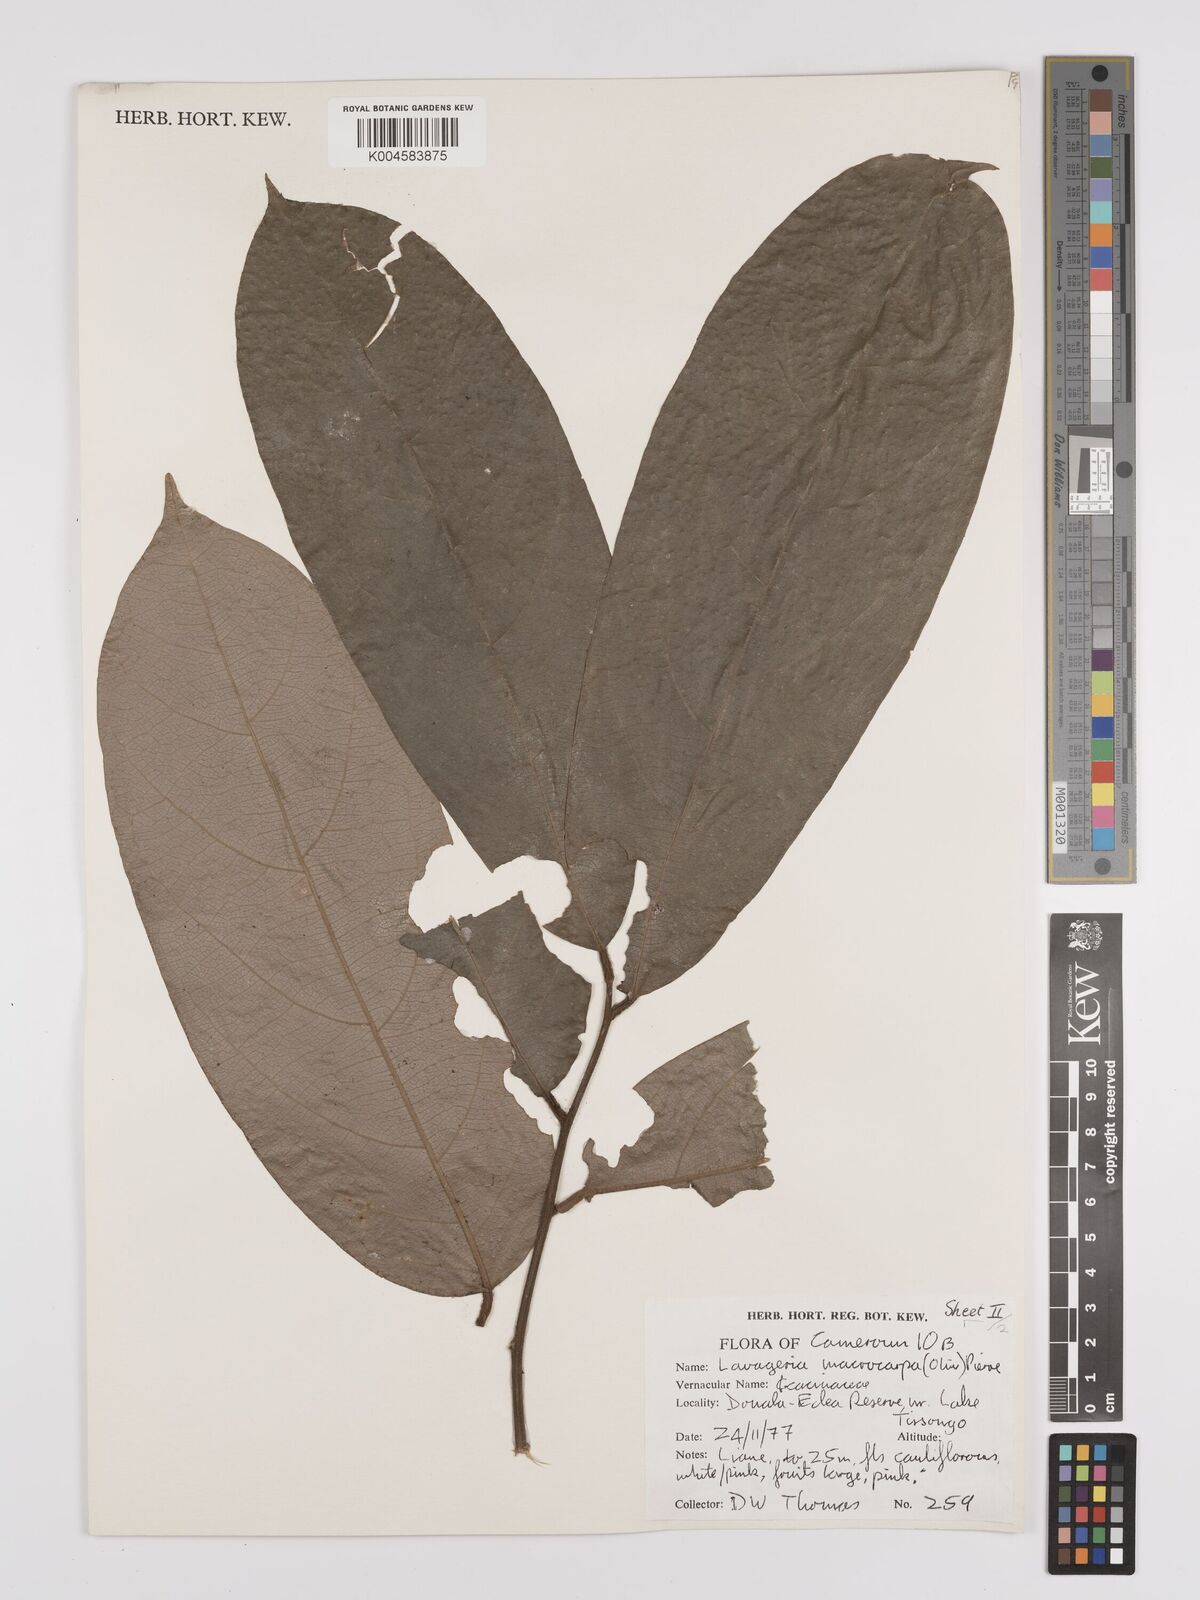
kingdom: Plantae
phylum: Tracheophyta
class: Magnoliopsida
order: Icacinales
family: Icacinaceae
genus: Lavigeria
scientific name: Lavigeria macrocarpa
